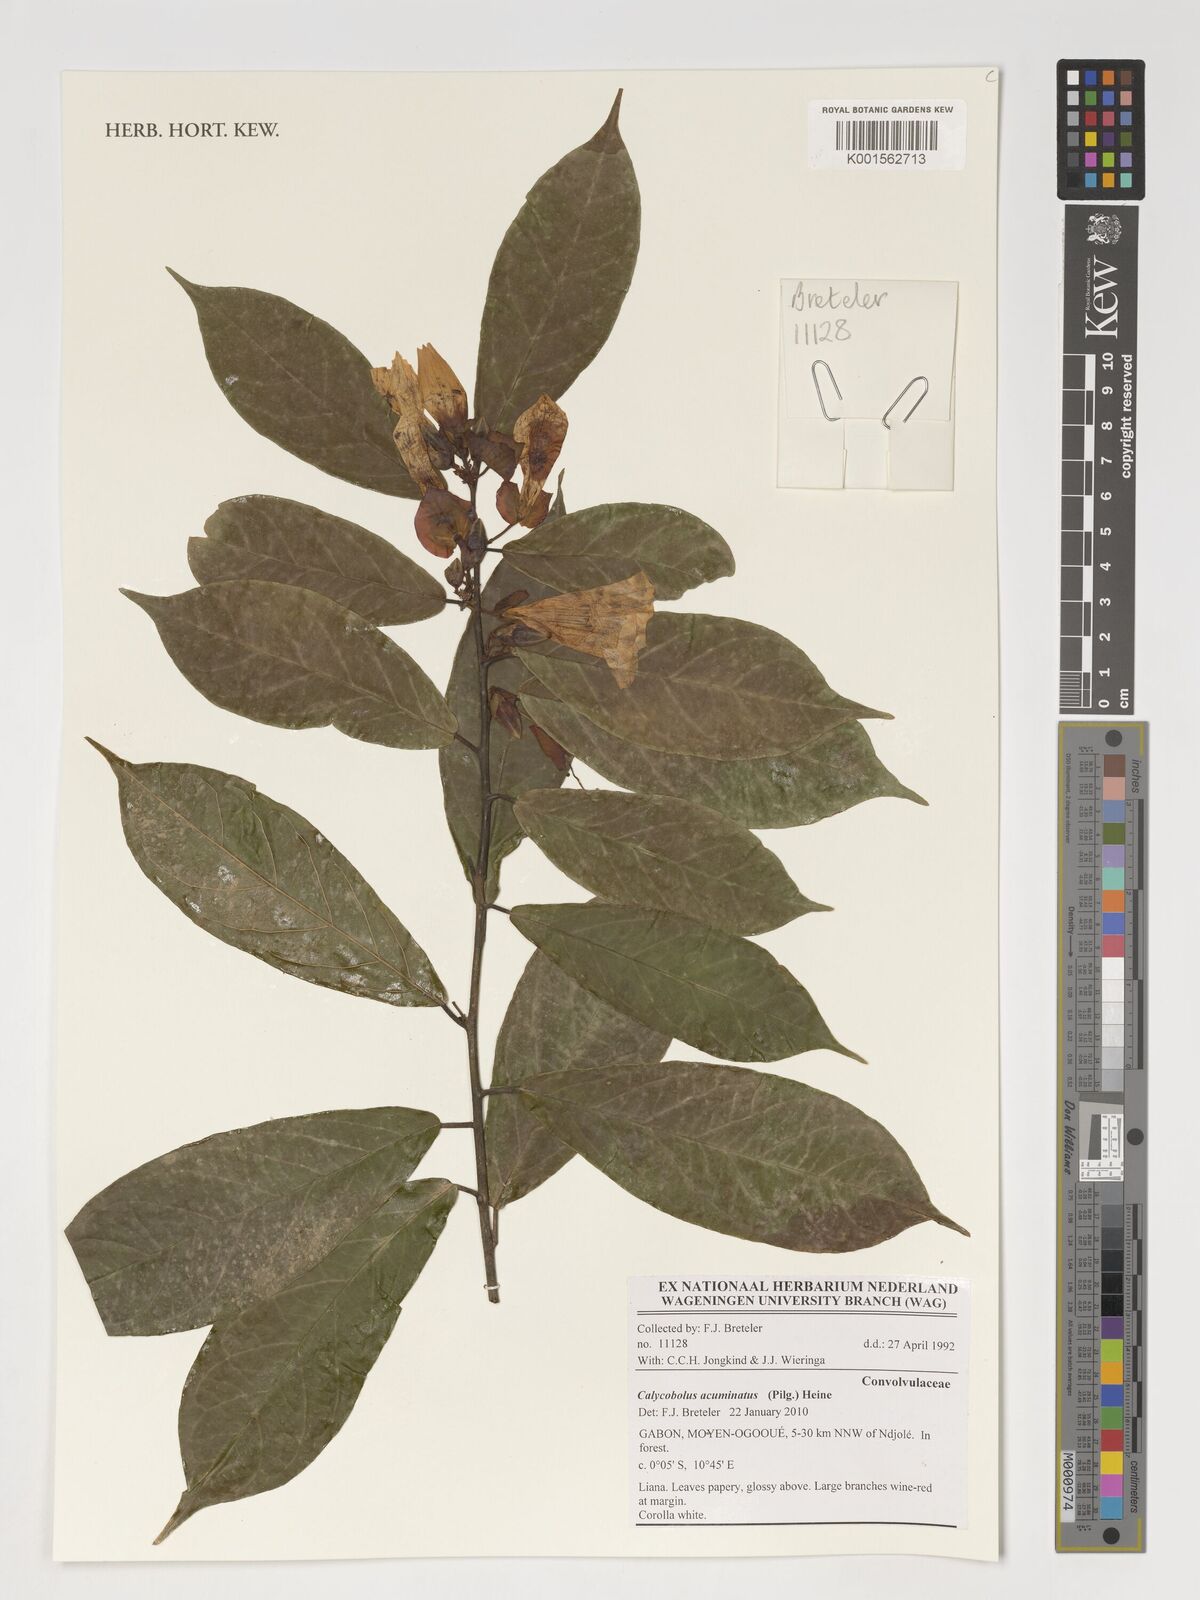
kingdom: Plantae
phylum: Tracheophyta
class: Magnoliopsida
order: Solanales
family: Convolvulaceae
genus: Calycobolus
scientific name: Calycobolus acuminatus
